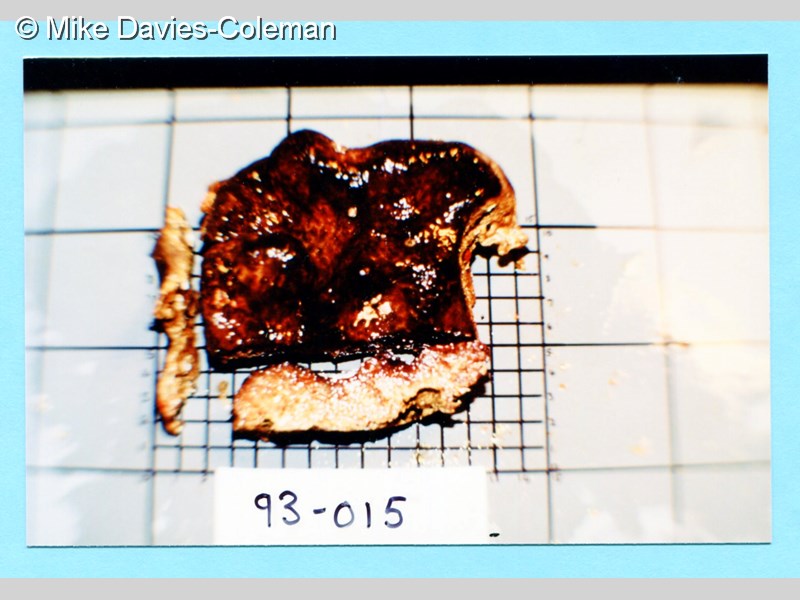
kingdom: Animalia
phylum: Chordata
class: Ascidiacea
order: Aplousobranchia
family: Polyclinidae
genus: Aplidium
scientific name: Aplidium
